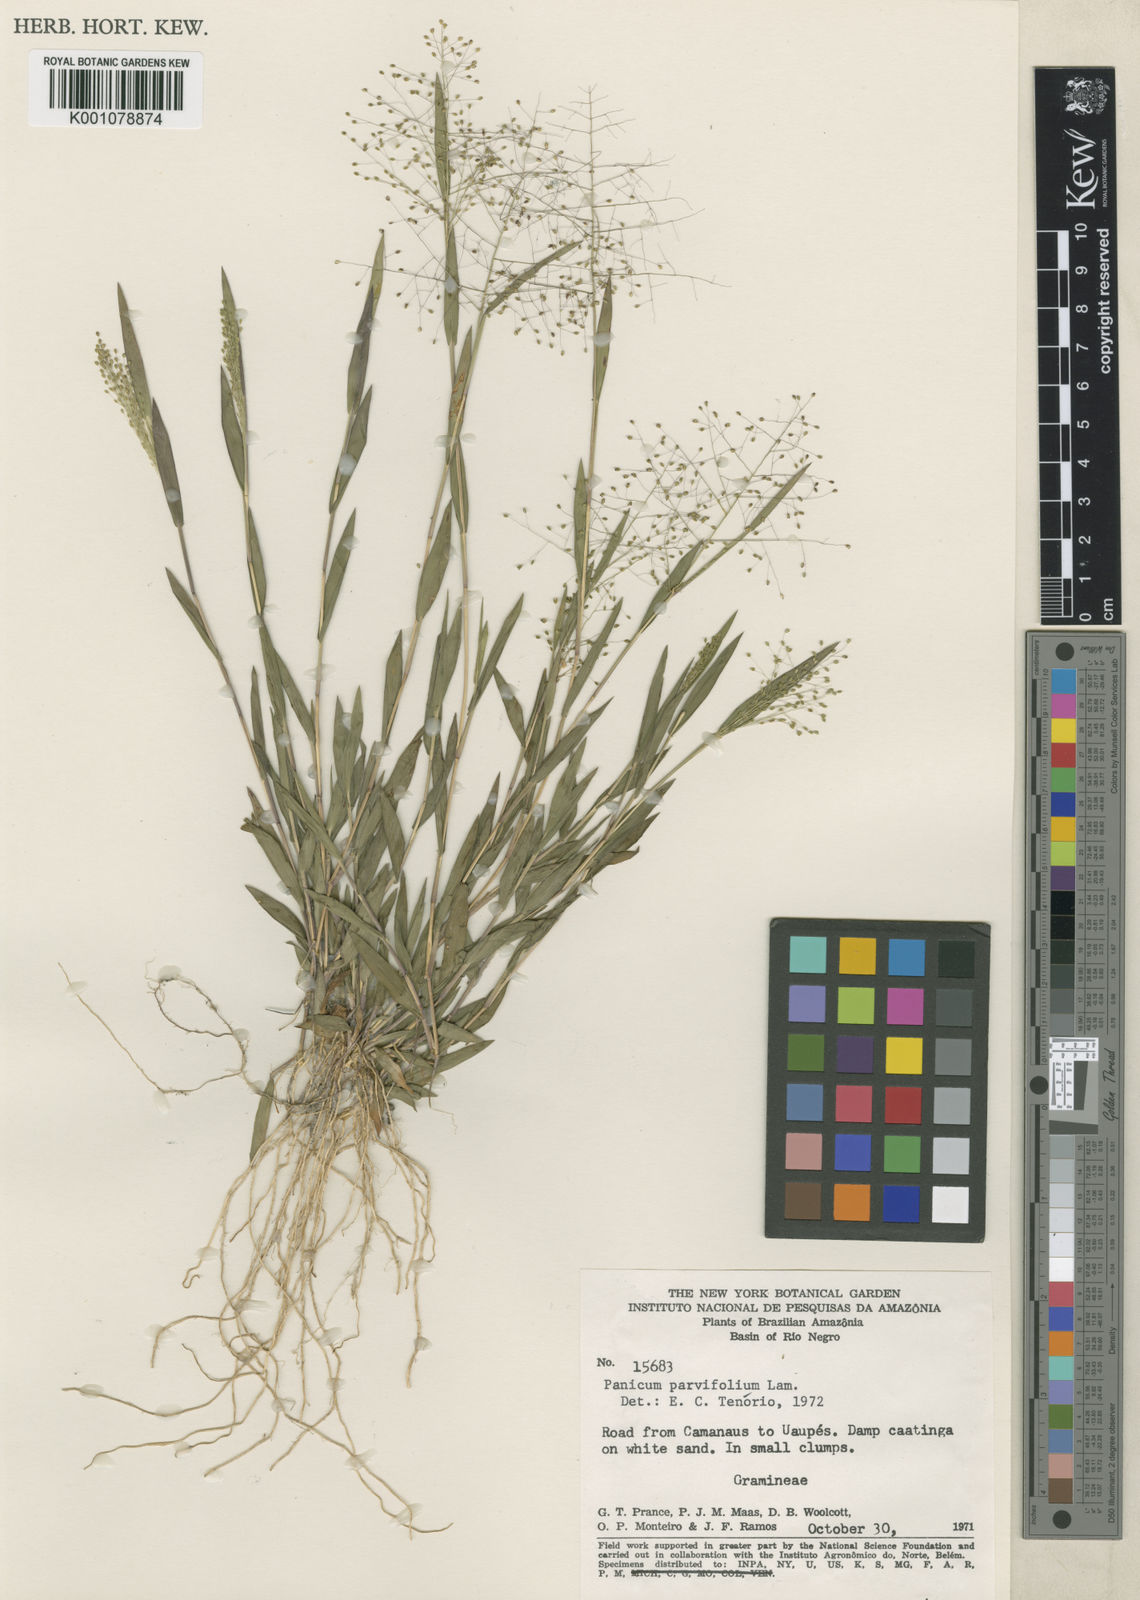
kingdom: Plantae
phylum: Tracheophyta
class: Liliopsida
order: Poales
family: Poaceae
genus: Trichanthecium
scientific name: Trichanthecium parvifolium
